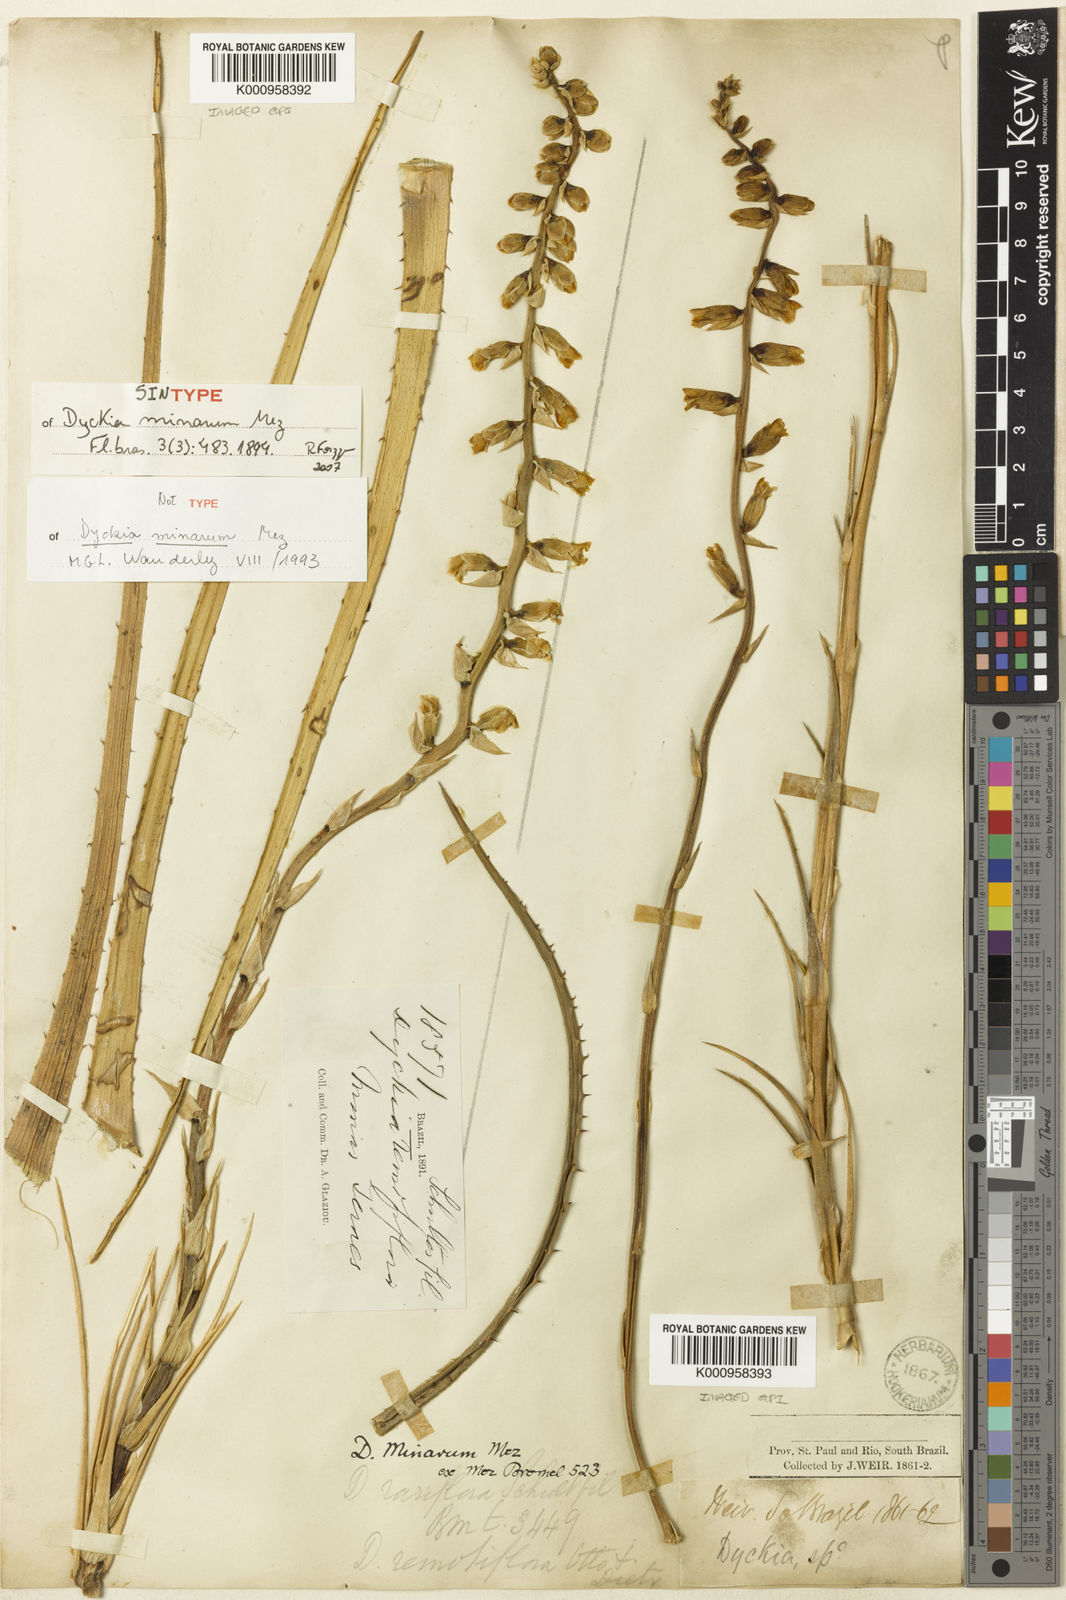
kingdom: Plantae
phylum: Tracheophyta
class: Liliopsida
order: Poales
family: Bromeliaceae
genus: Dyckia
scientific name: Dyckia minarum
